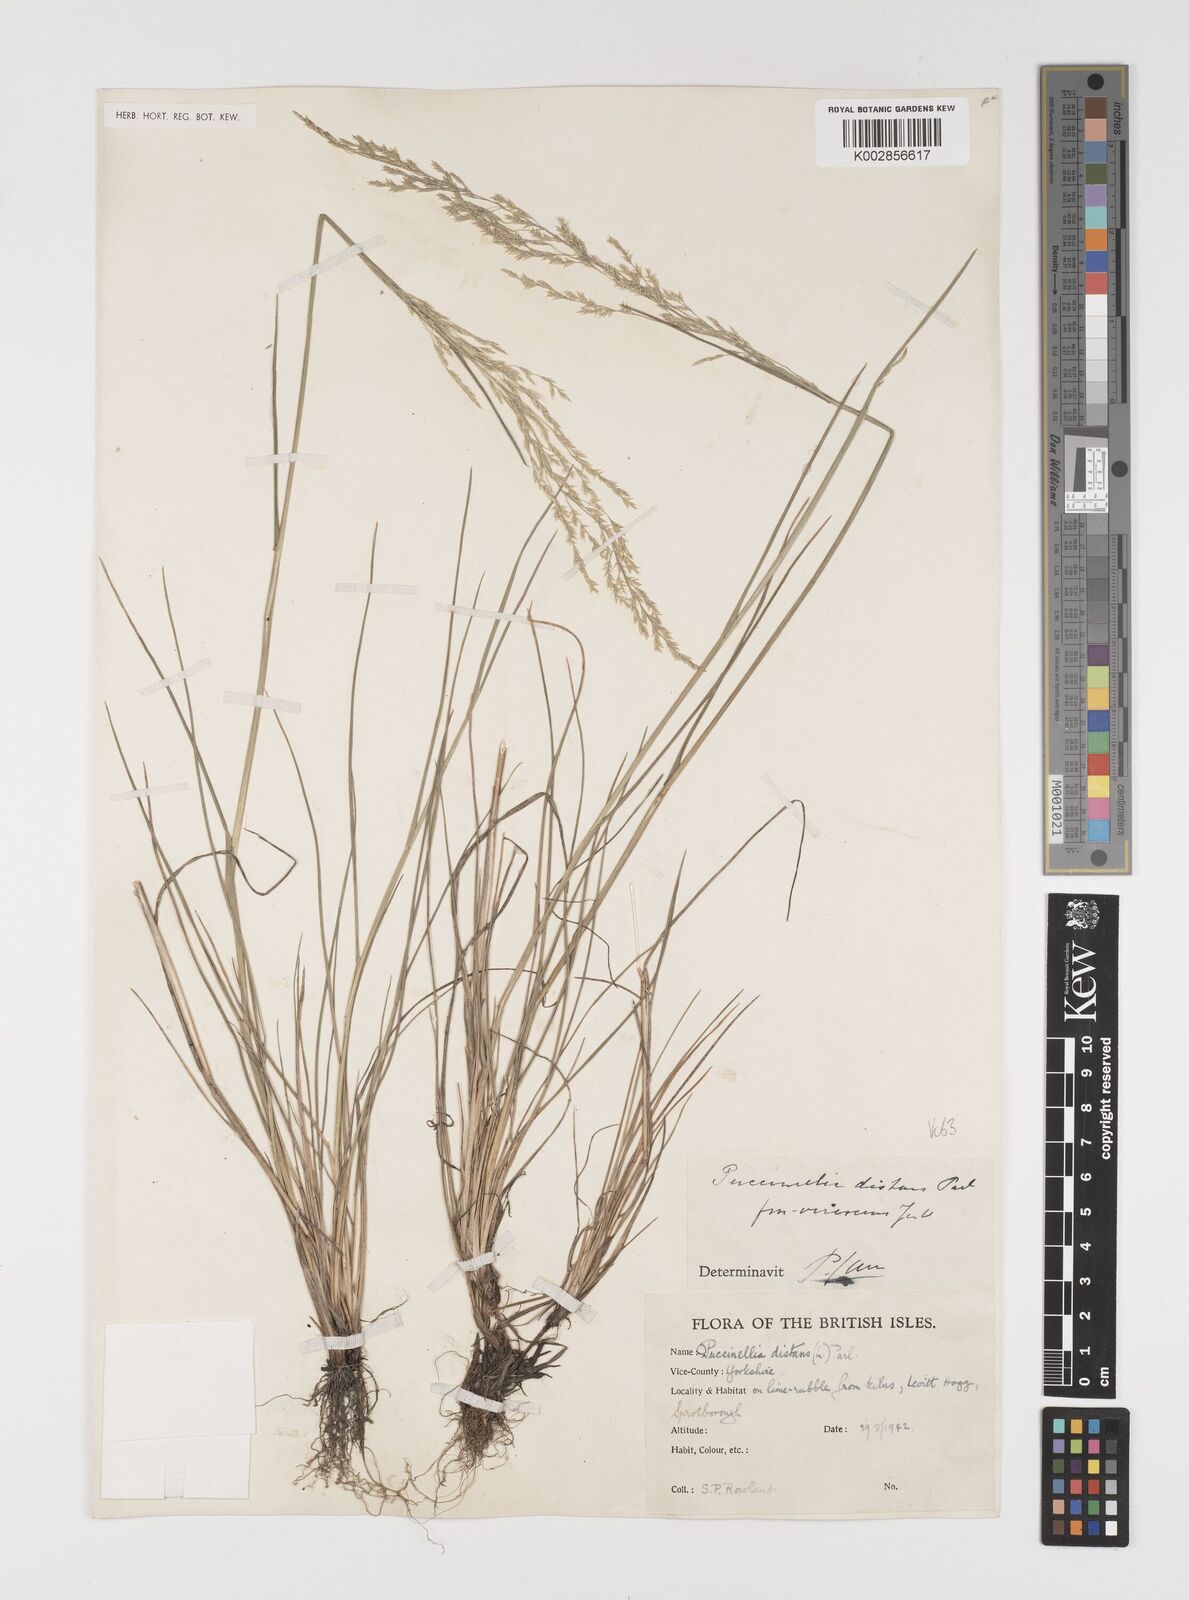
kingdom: Plantae
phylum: Tracheophyta
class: Liliopsida
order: Poales
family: Poaceae
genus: Puccinellia
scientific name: Puccinellia distans
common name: Weeping alkaligrass
